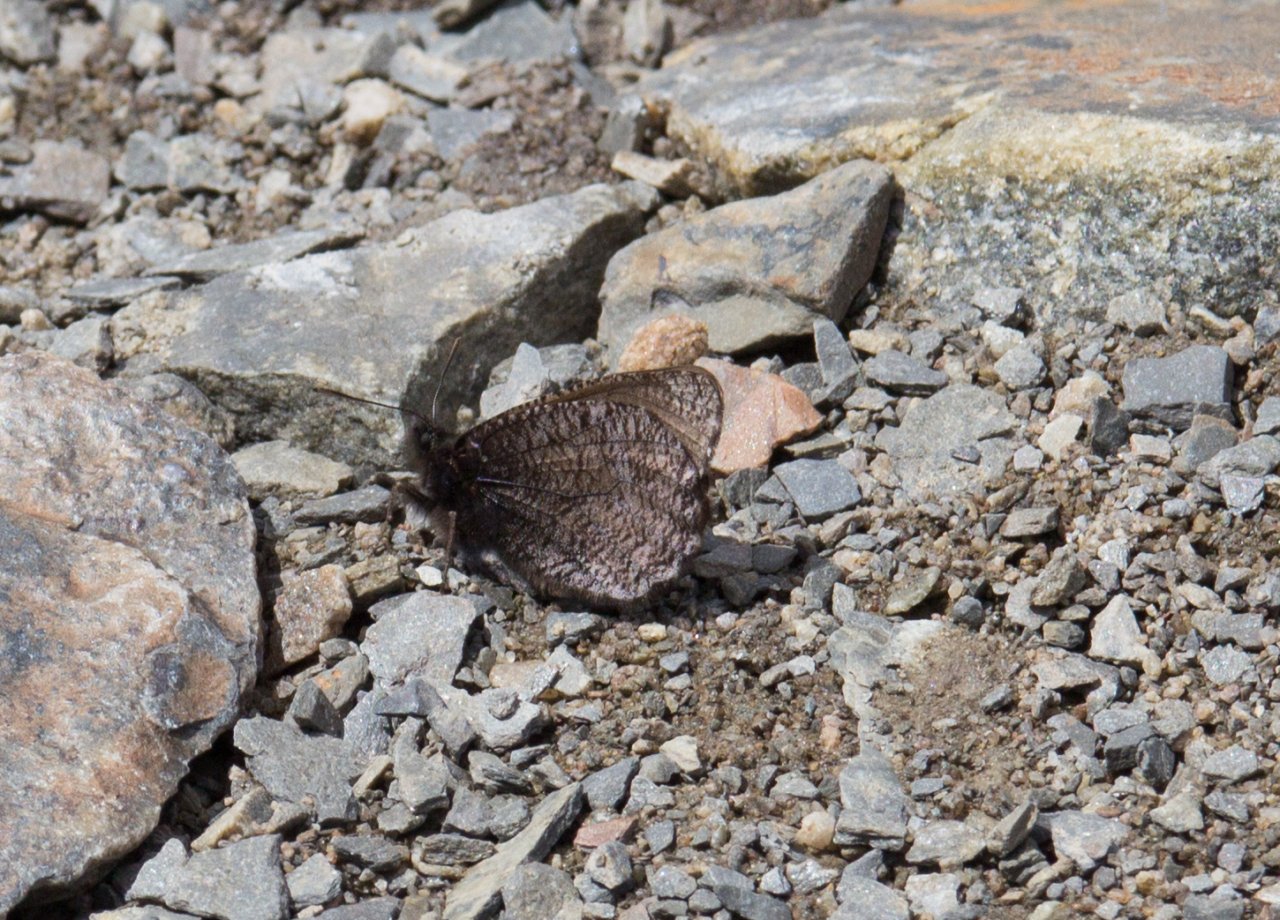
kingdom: Animalia
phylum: Arthropoda
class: Insecta
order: Lepidoptera
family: Nymphalidae
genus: Oeneis
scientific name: Oeneis melissa
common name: Melissa Arctic
